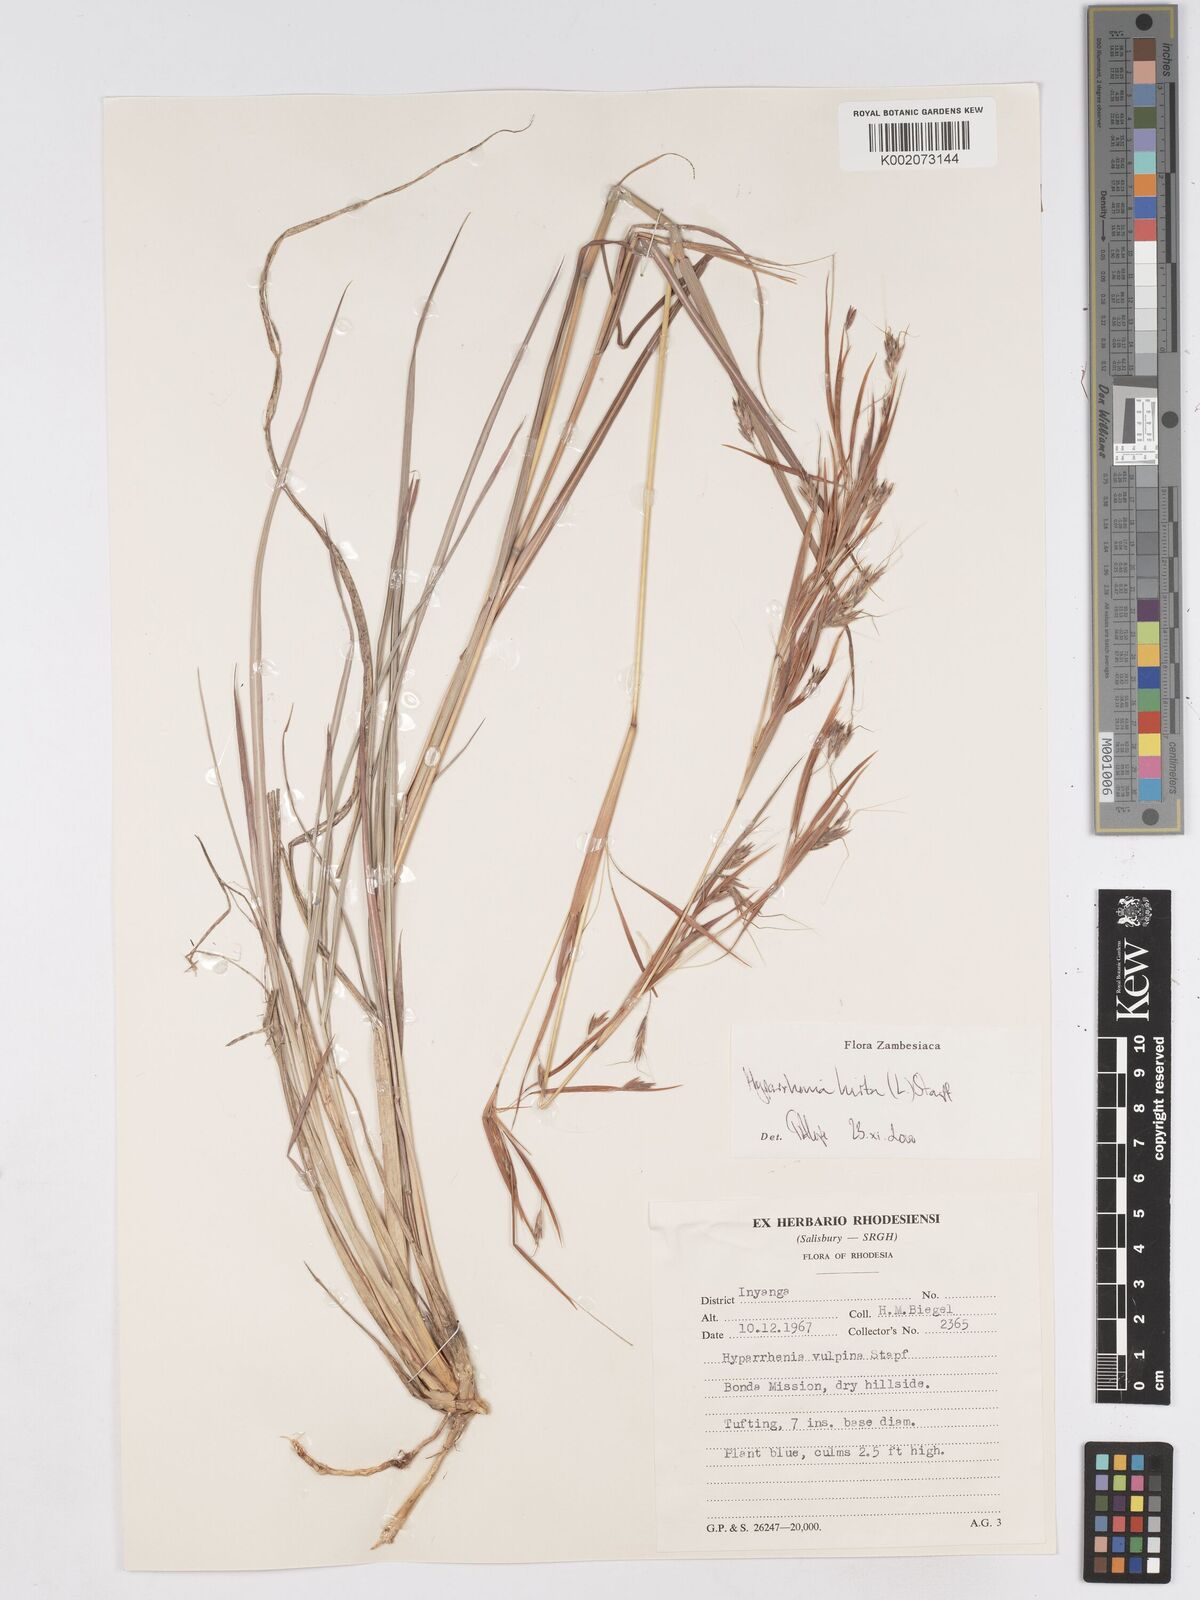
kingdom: Plantae
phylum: Tracheophyta
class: Liliopsida
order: Poales
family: Poaceae
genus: Hyparrhenia
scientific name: Hyparrhenia hirta
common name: Thatching grass
